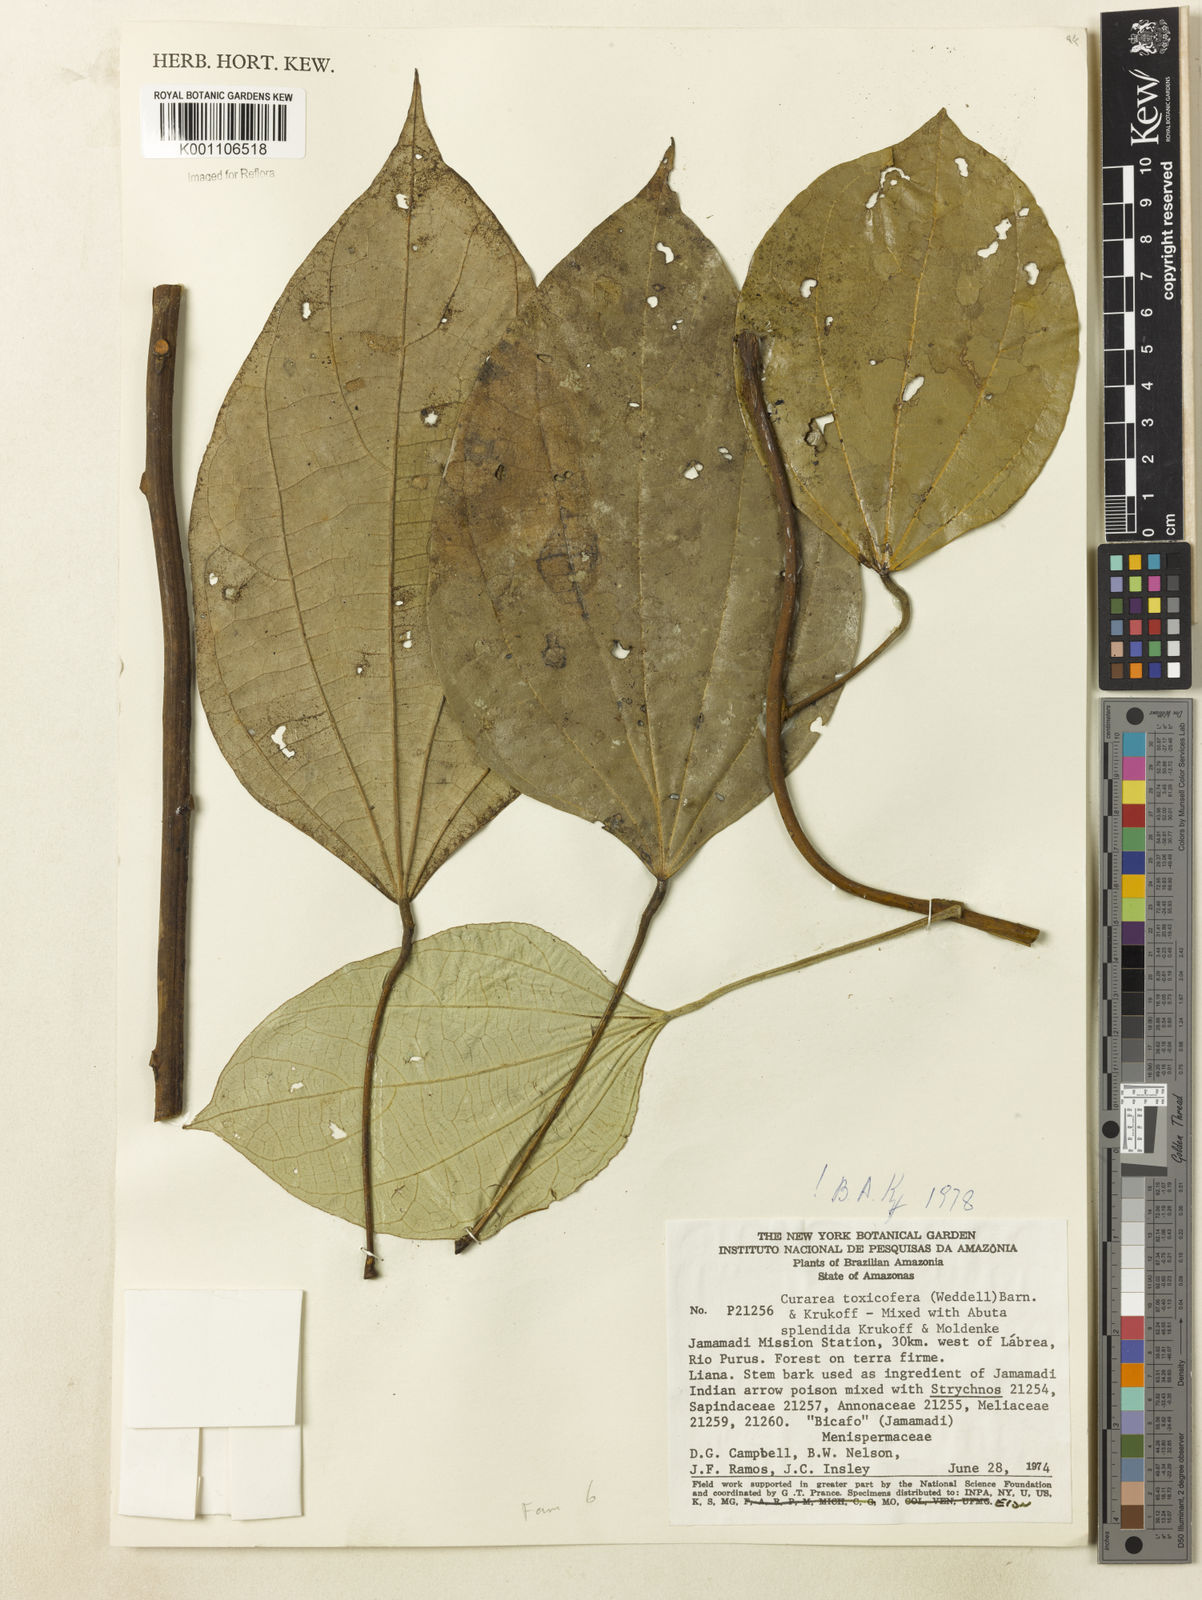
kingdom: Plantae
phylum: Tracheophyta
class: Magnoliopsida
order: Ranunculales
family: Menispermaceae
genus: Curarea
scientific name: Curarea toxicofera
